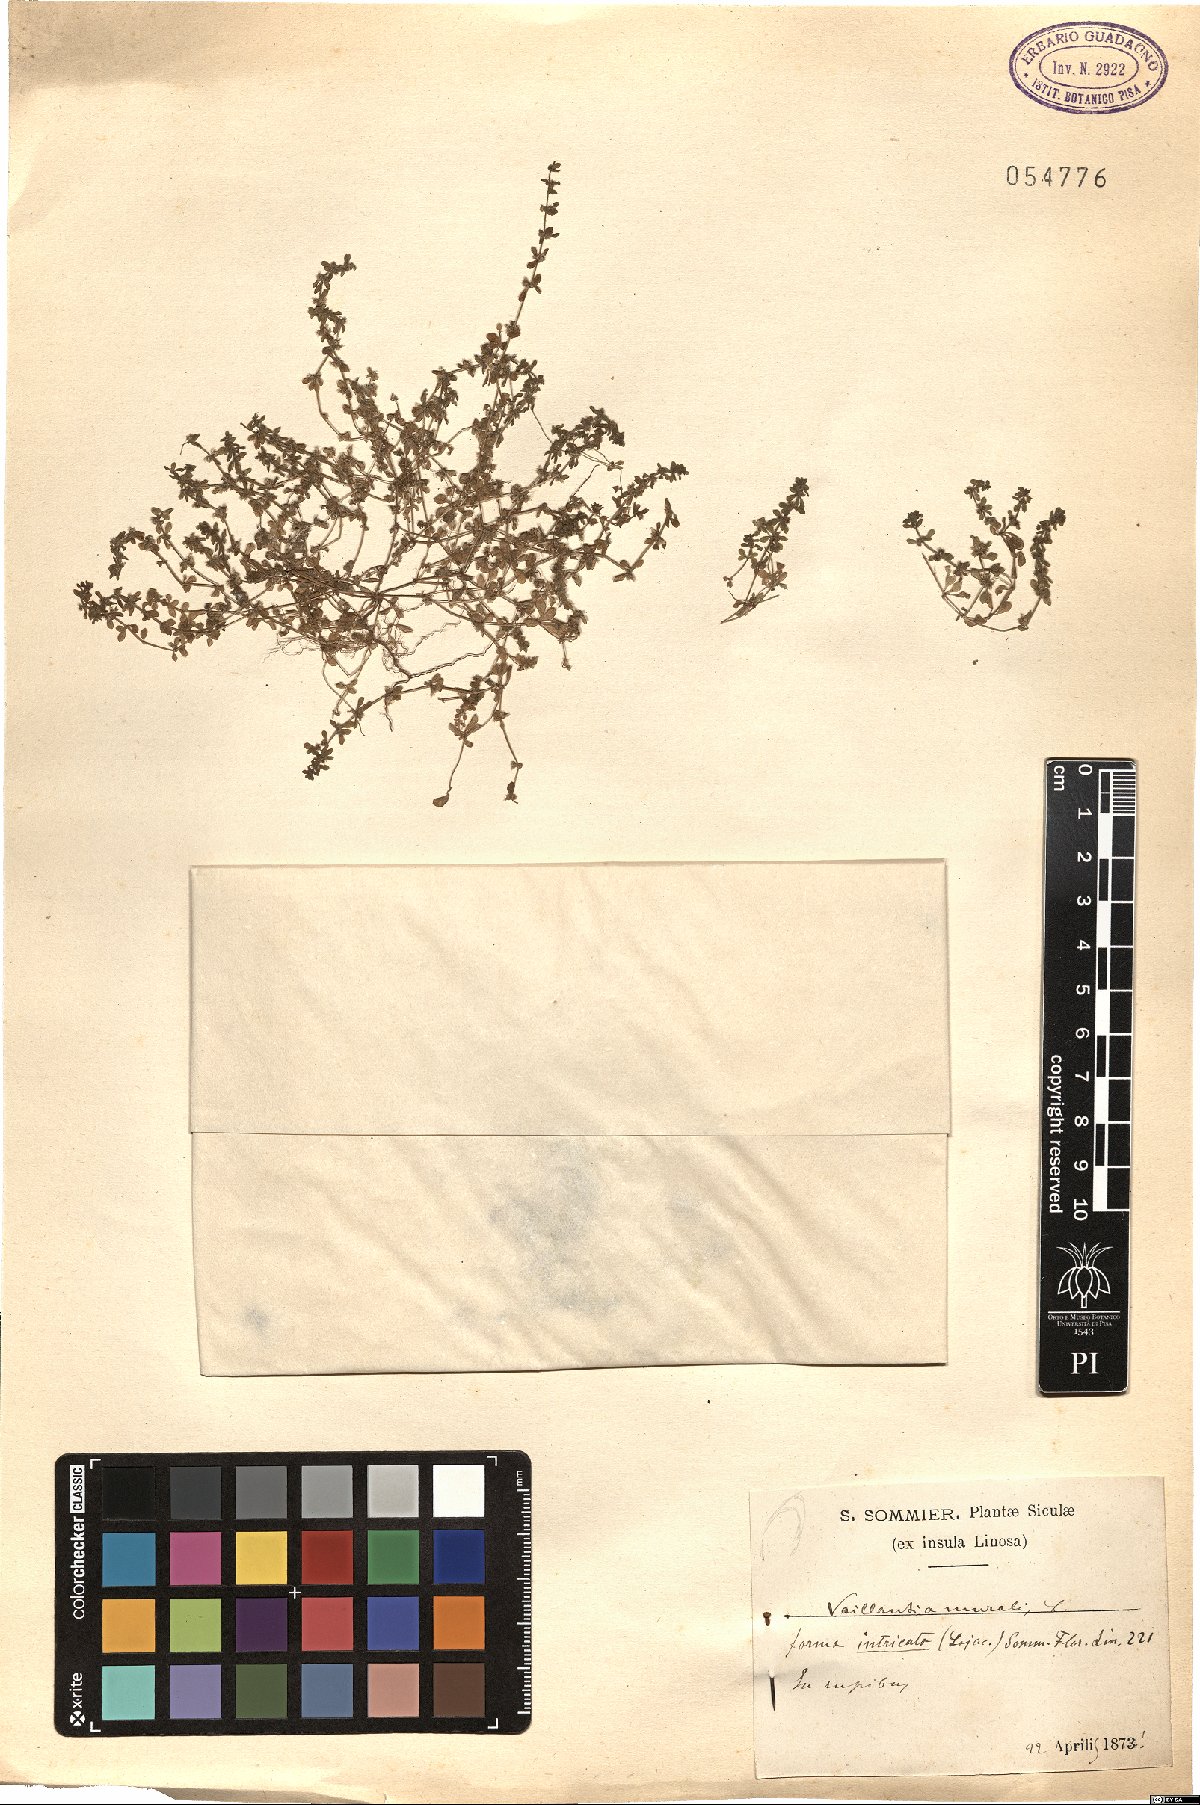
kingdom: Plantae
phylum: Tracheophyta
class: Magnoliopsida
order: Gentianales
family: Rubiaceae
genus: Valantia
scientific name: Valantia muralis
